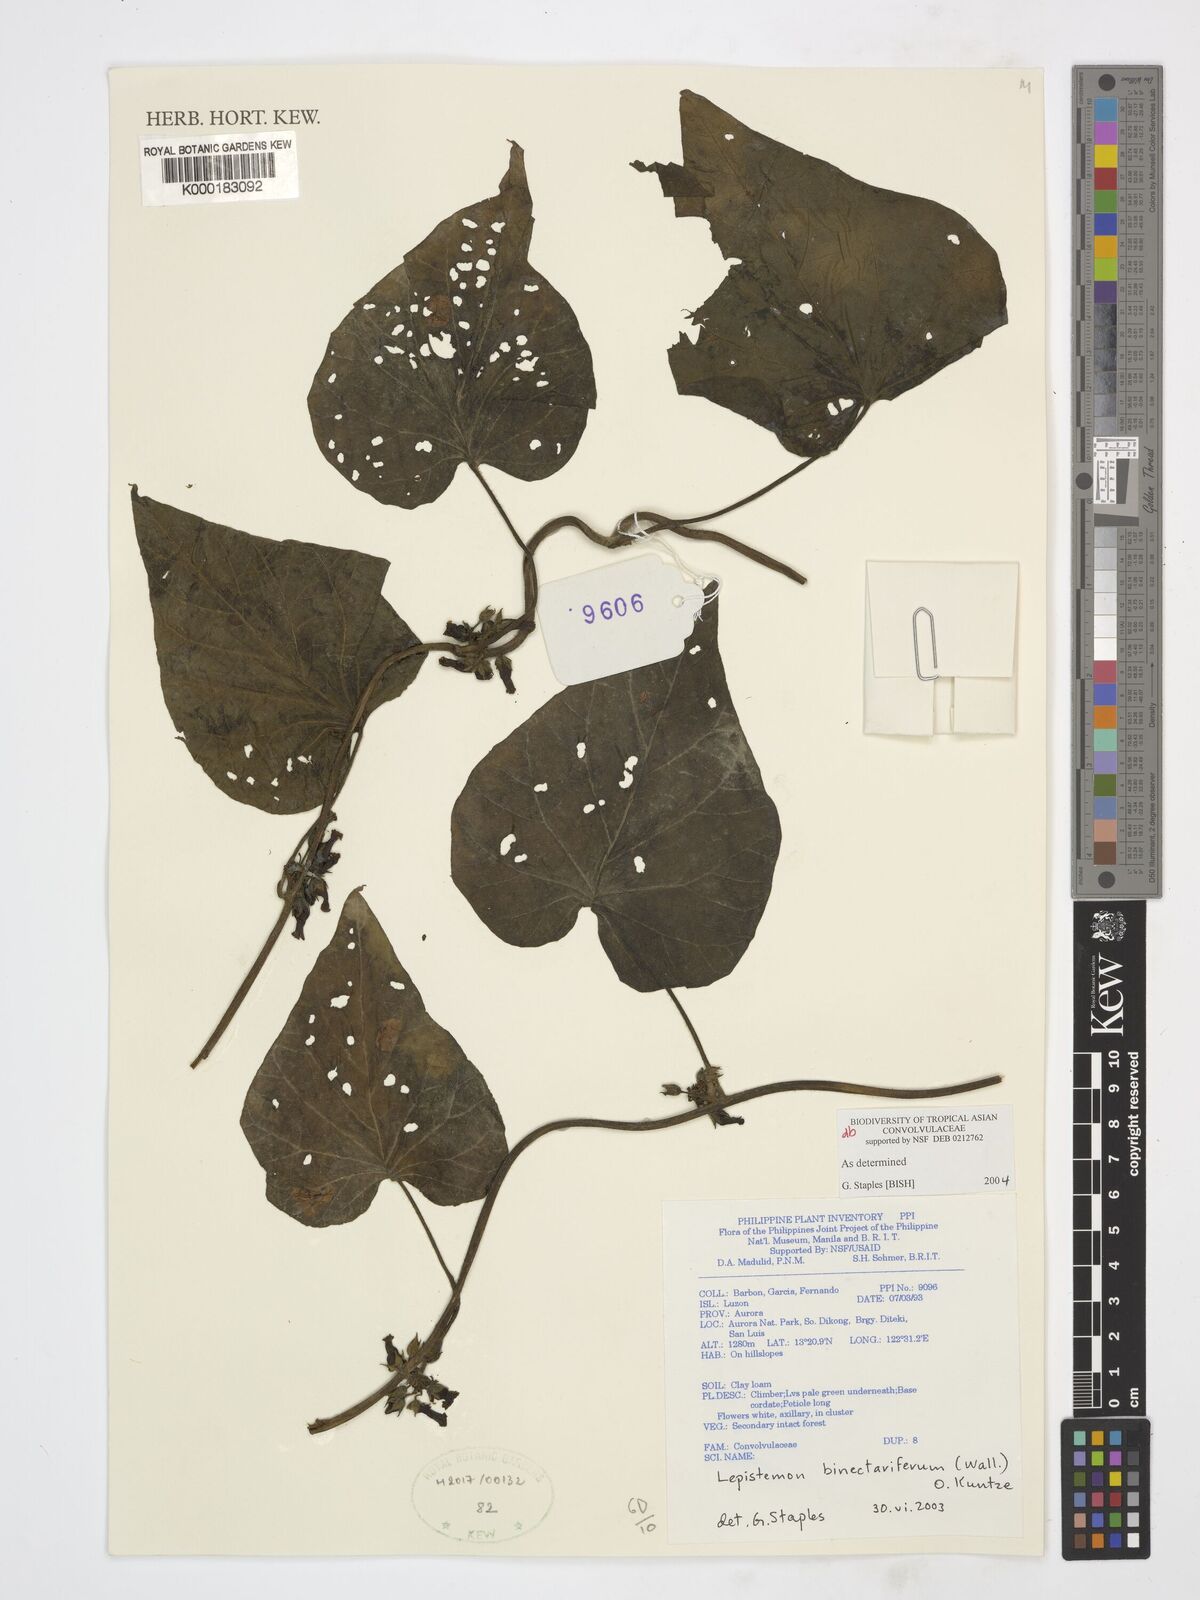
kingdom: Plantae
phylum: Tracheophyta
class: Magnoliopsida
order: Solanales
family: Convolvulaceae
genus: Lepistemon
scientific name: Lepistemon
